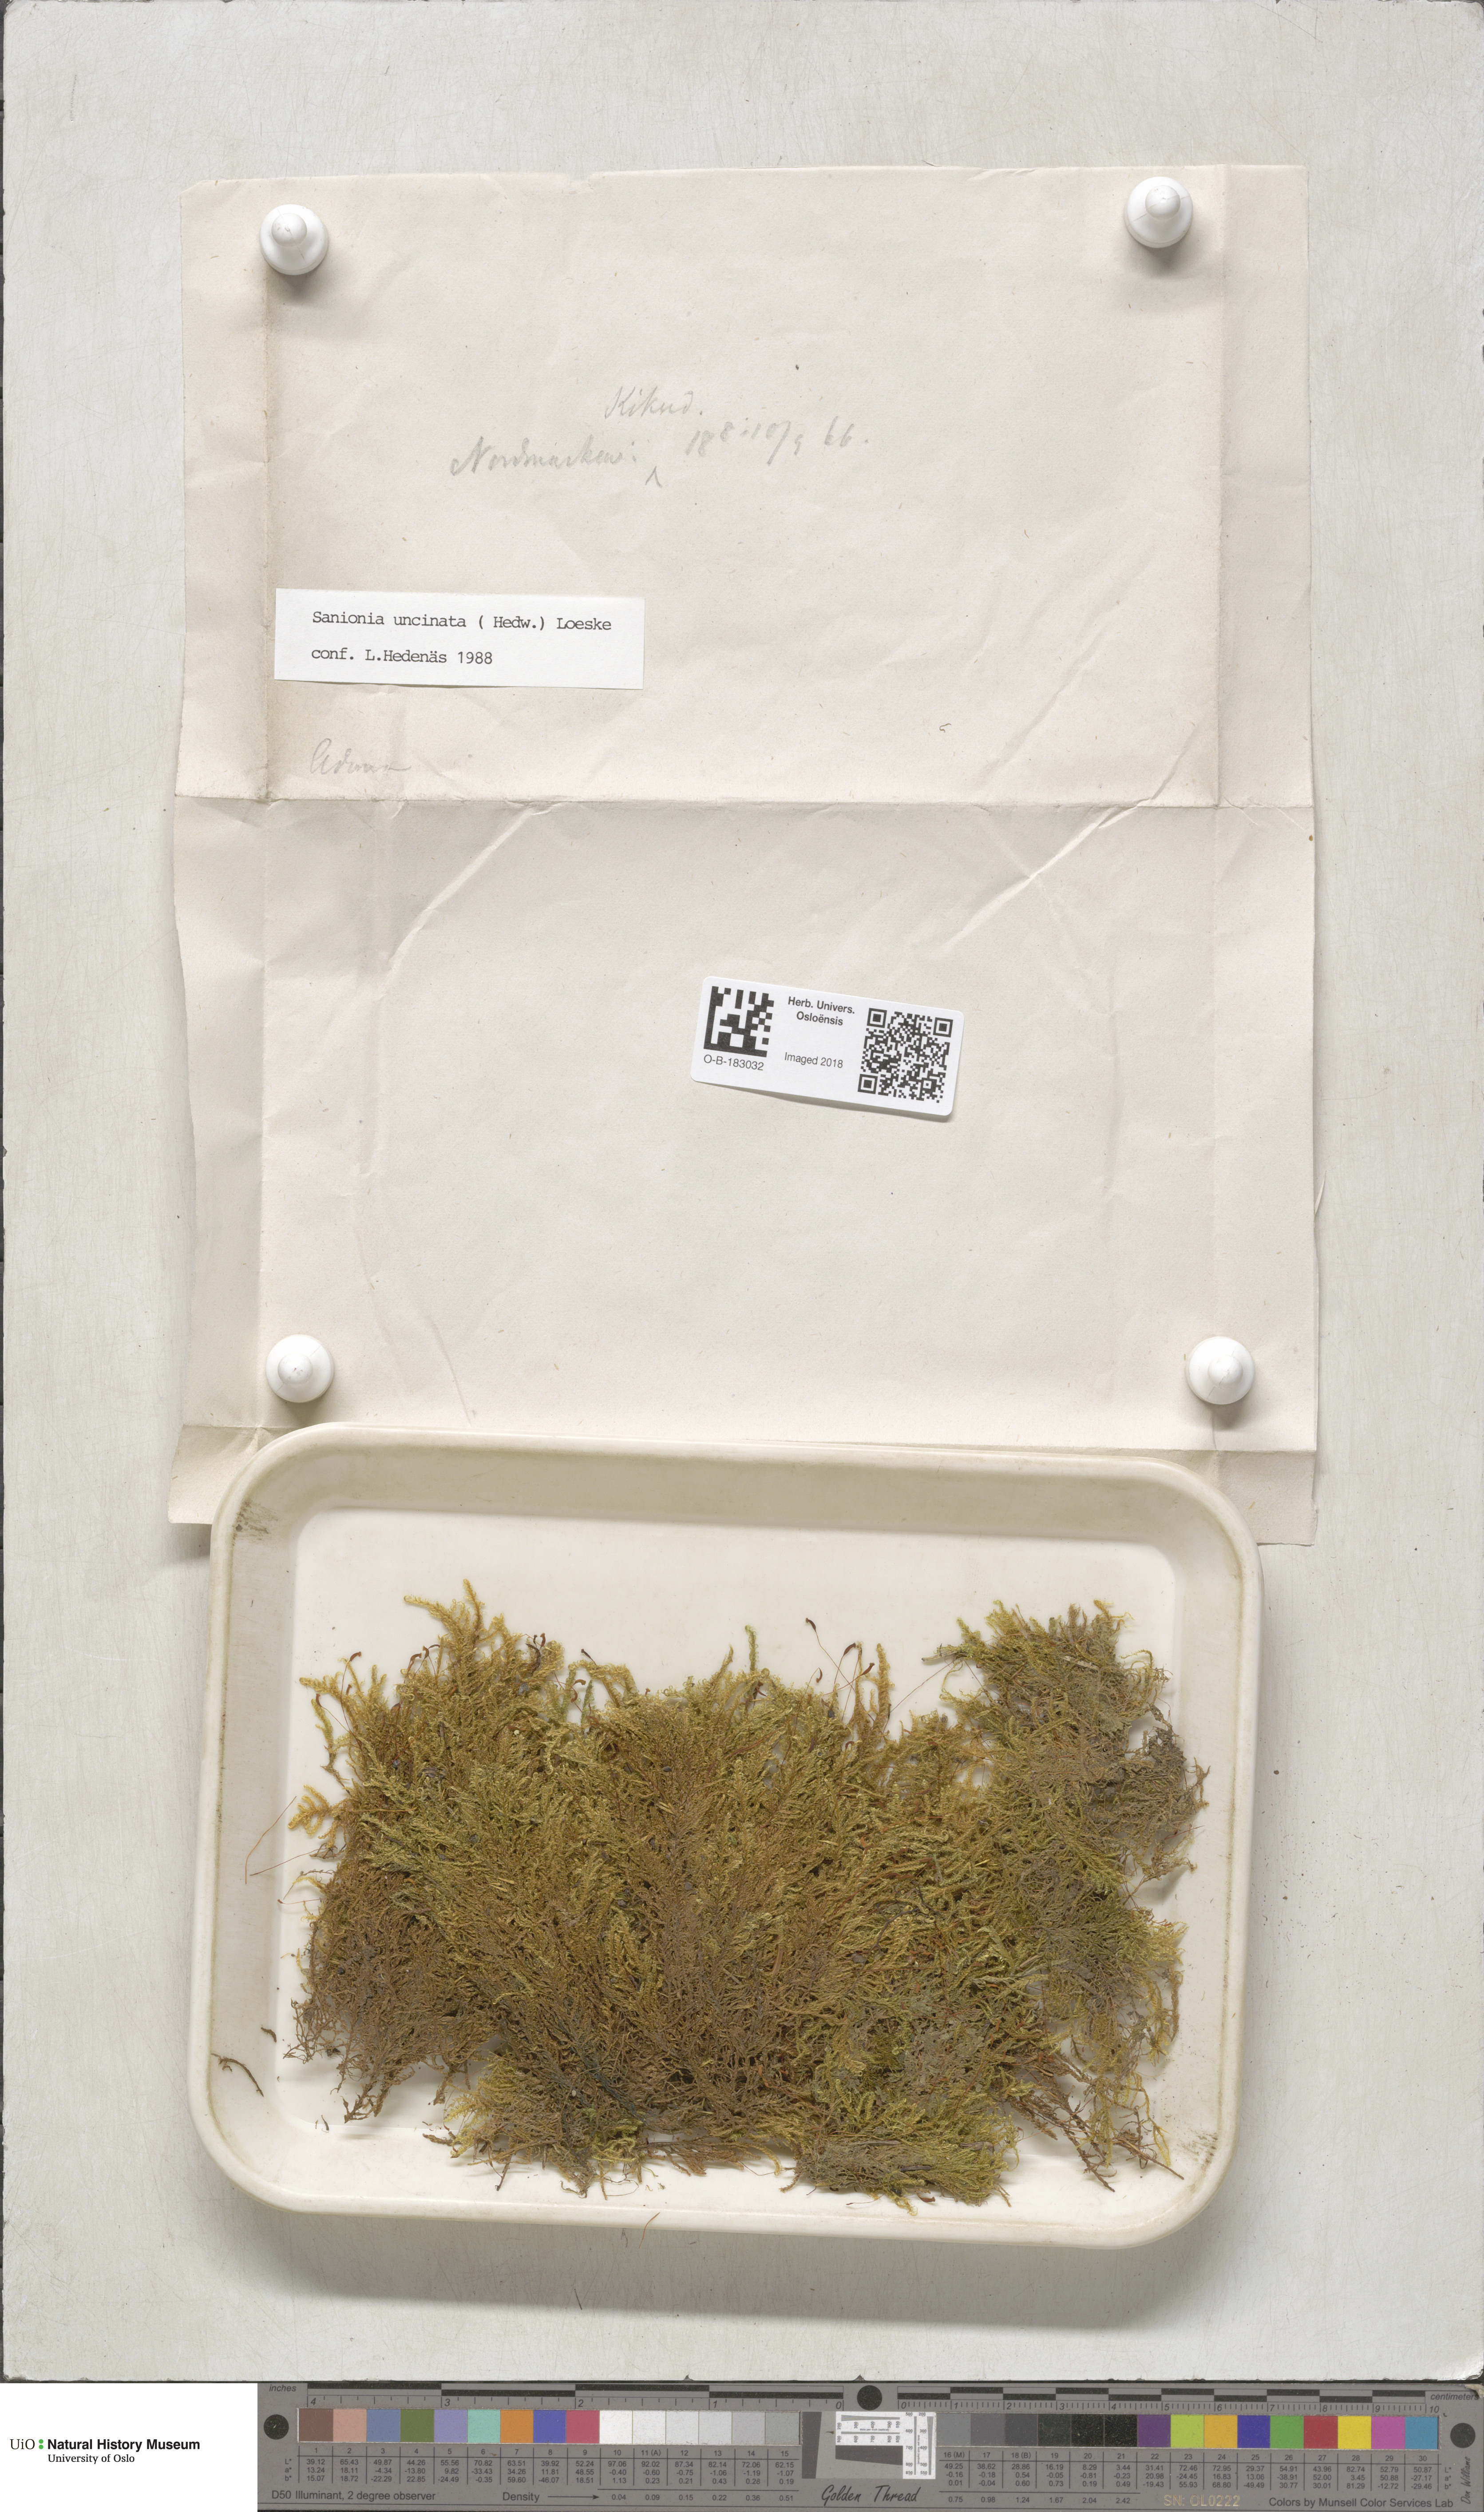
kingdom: Plantae
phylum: Bryophyta
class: Bryopsida
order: Hypnales
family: Scorpidiaceae
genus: Sanionia
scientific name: Sanionia uncinata
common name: Sickle moss
